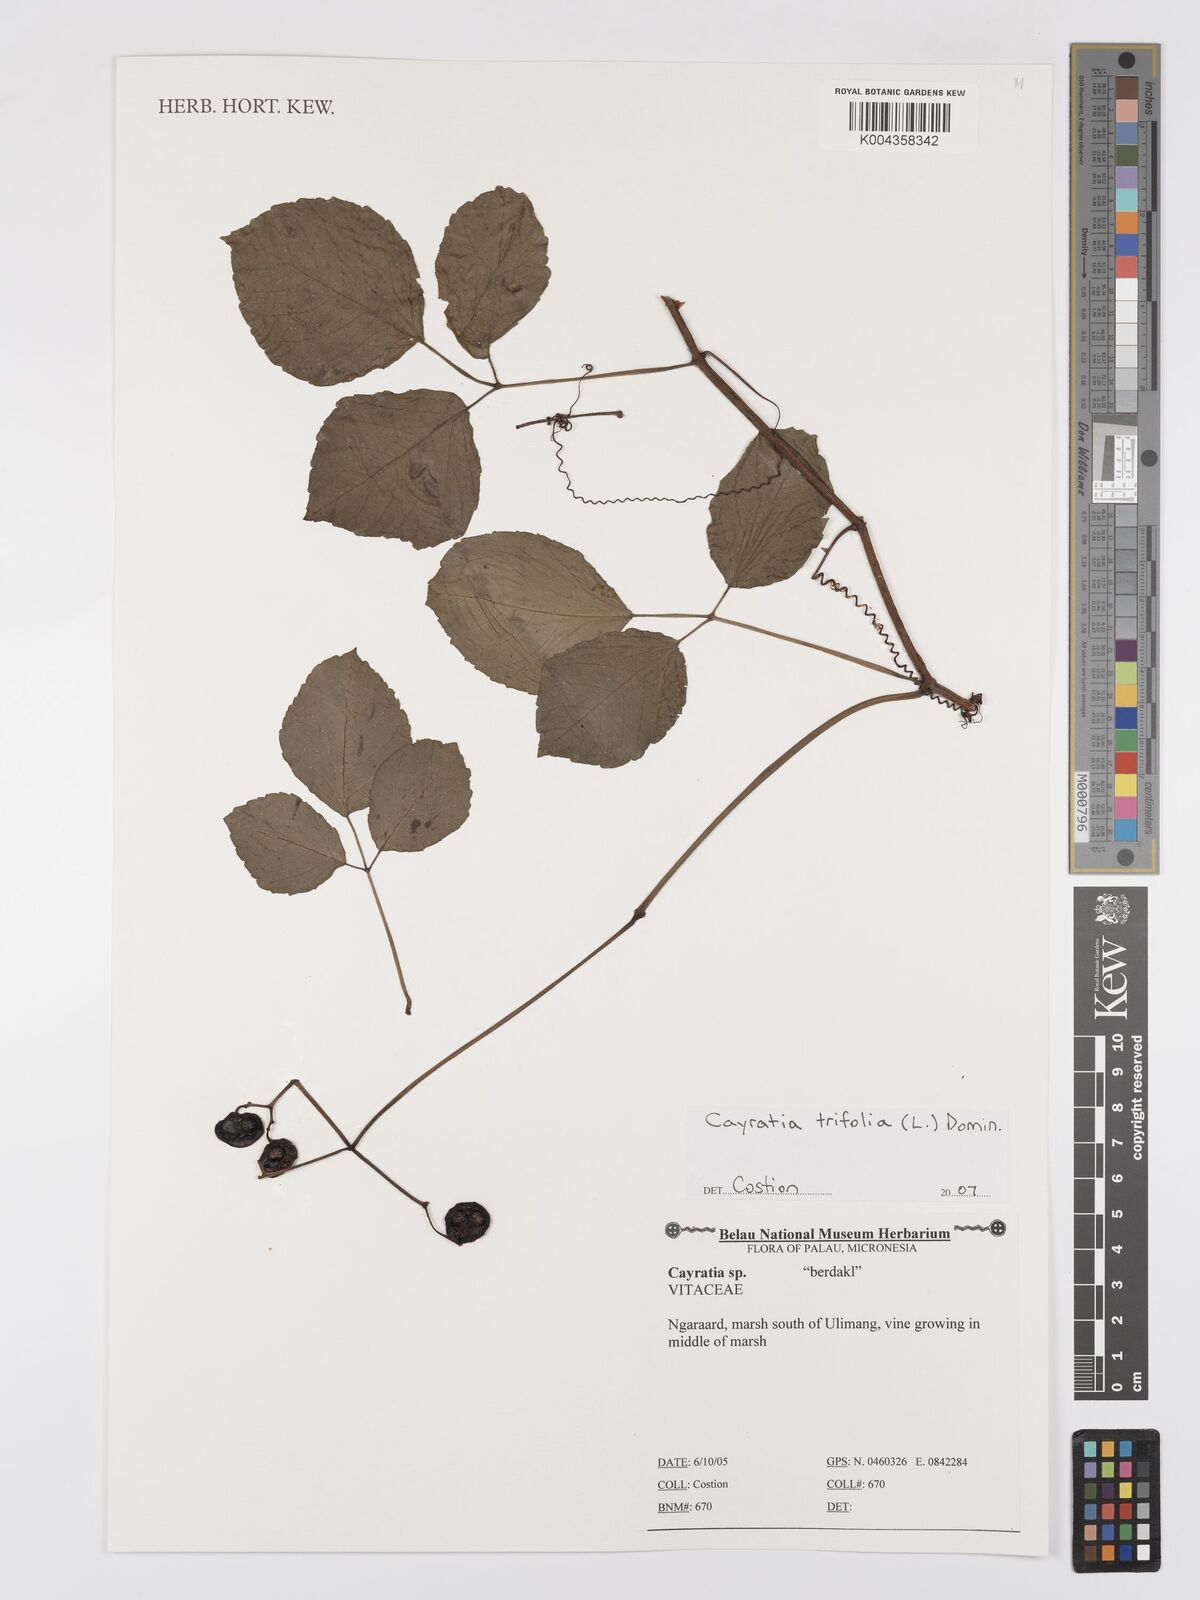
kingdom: Plantae
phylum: Tracheophyta
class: Magnoliopsida
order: Vitales
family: Vitaceae
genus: Cayratia
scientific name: Cayratia
